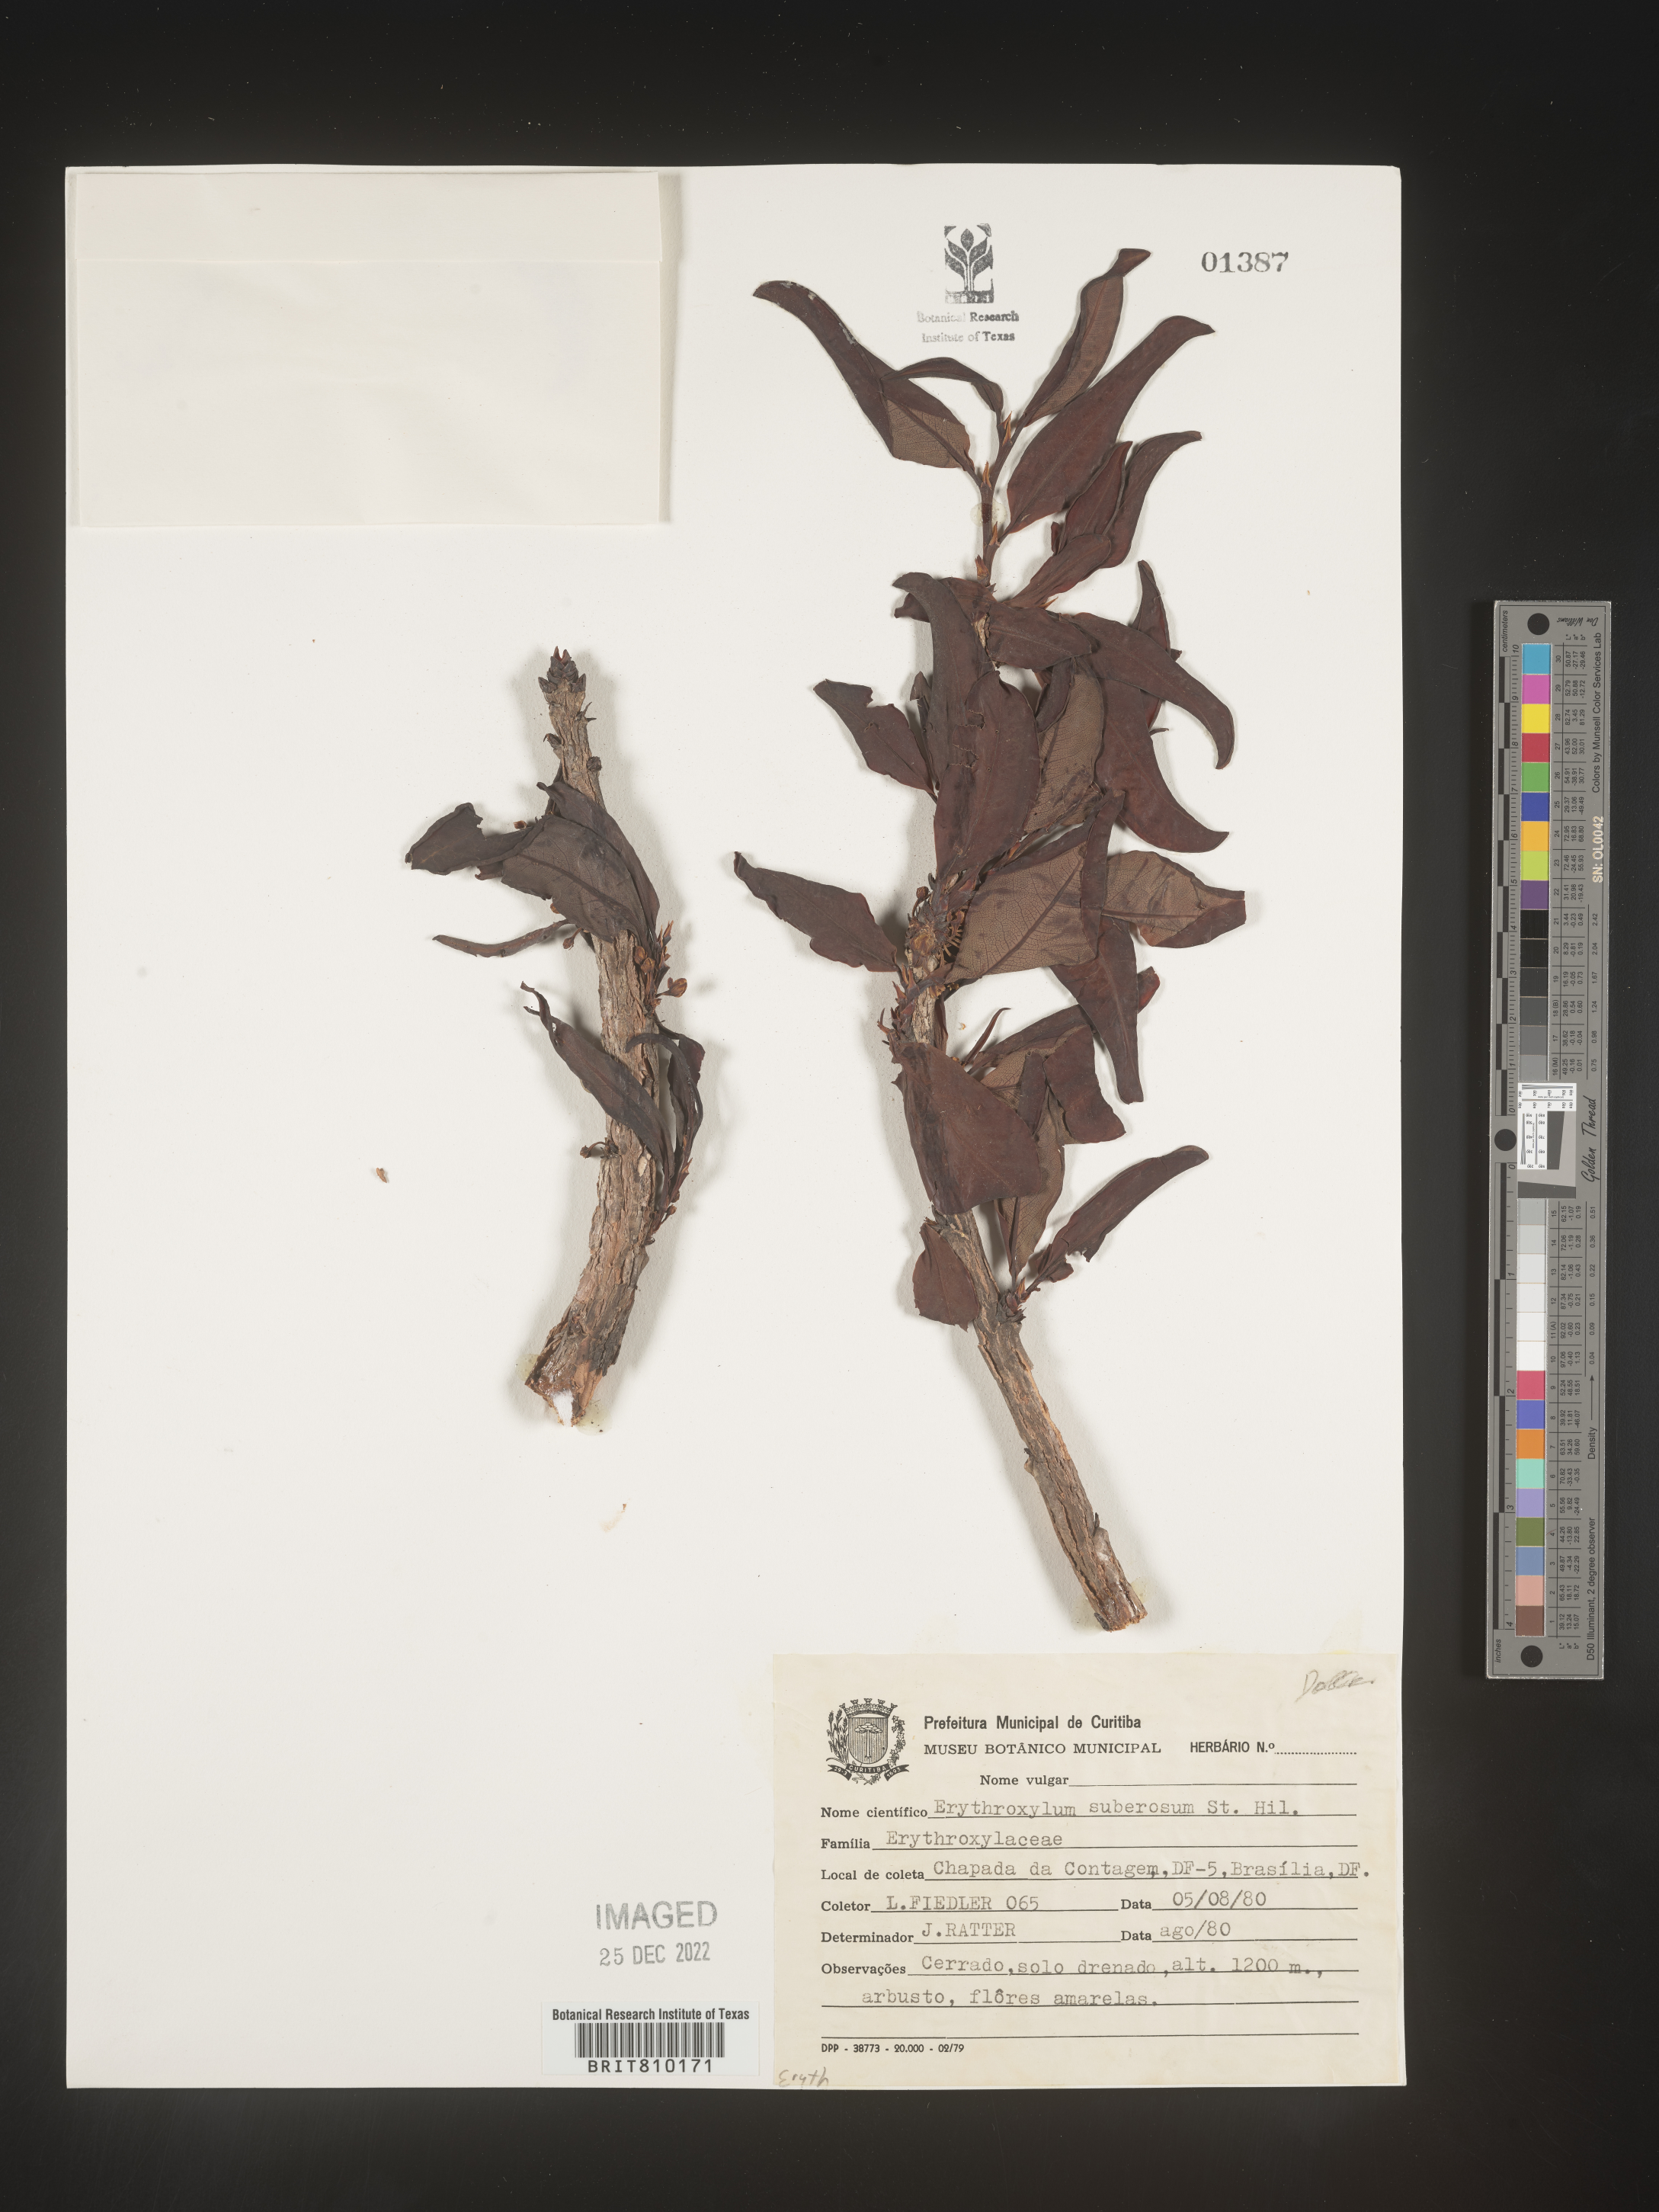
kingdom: Plantae
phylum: Tracheophyta
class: Magnoliopsida
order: Malpighiales
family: Erythroxylaceae
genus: Erythroxylum
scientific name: Erythroxylum
